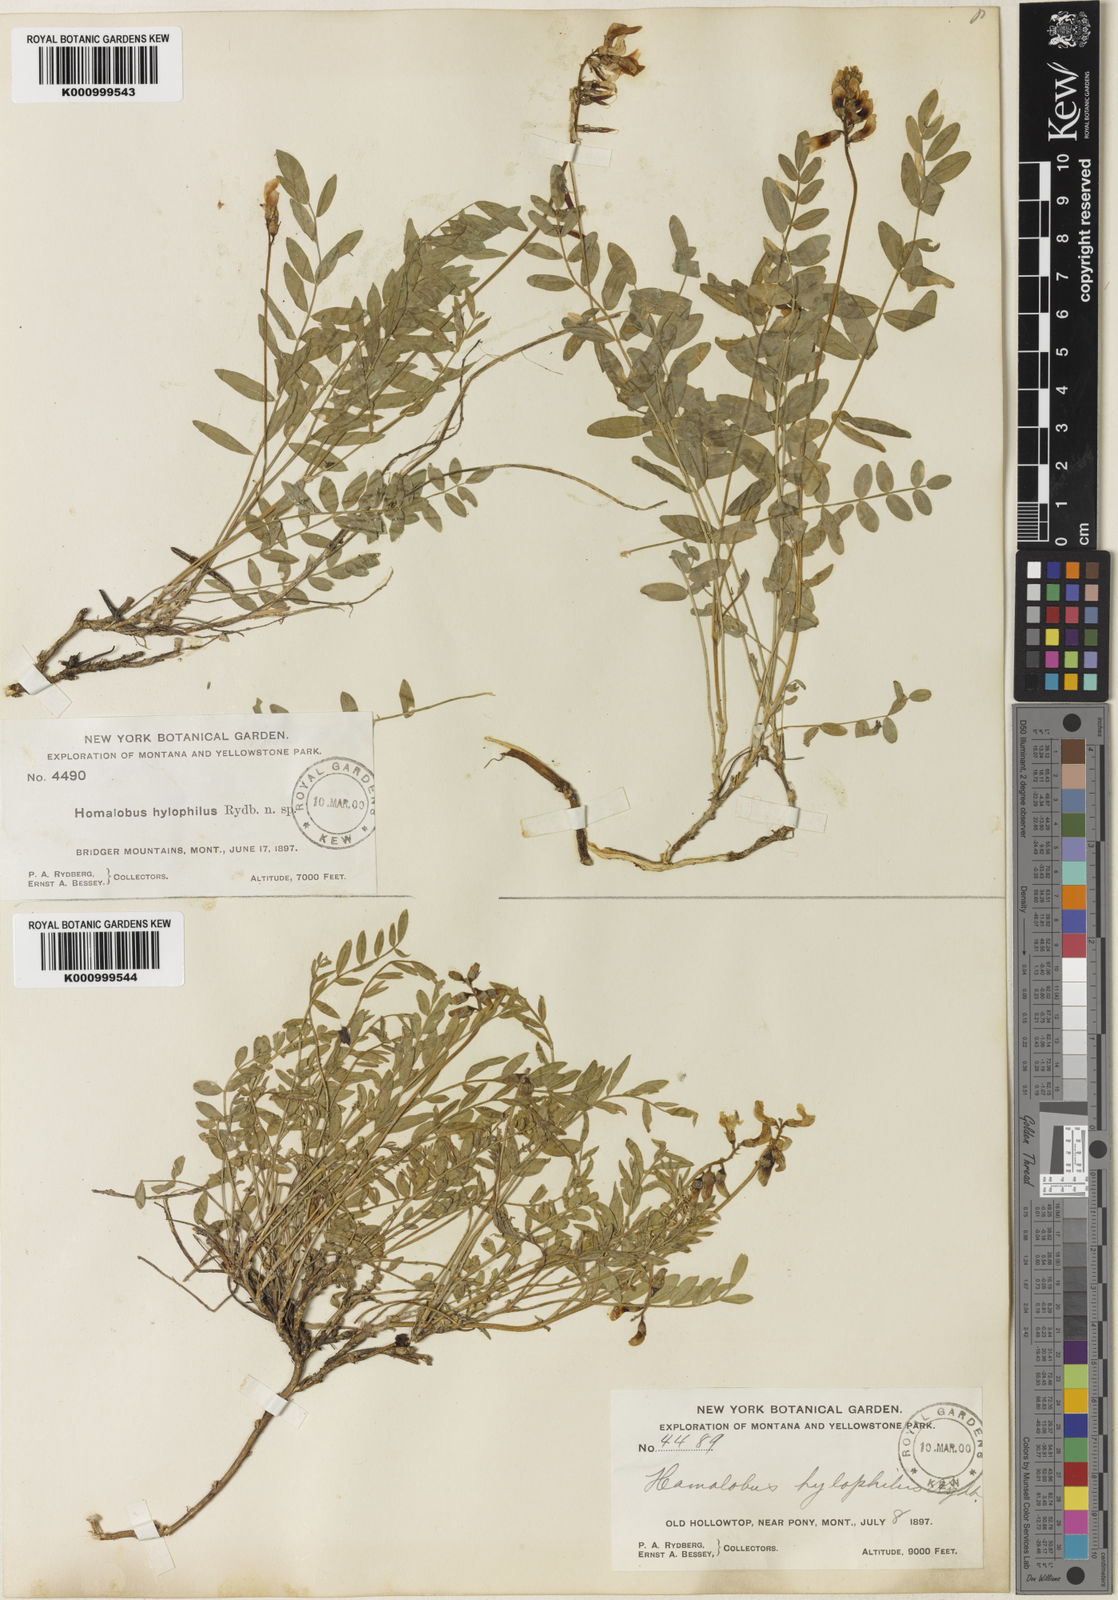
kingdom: Plantae
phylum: Tracheophyta
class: Magnoliopsida
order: Fabales
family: Fabaceae
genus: Astragalus
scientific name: Astragalus miser
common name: Timber milkvetch
